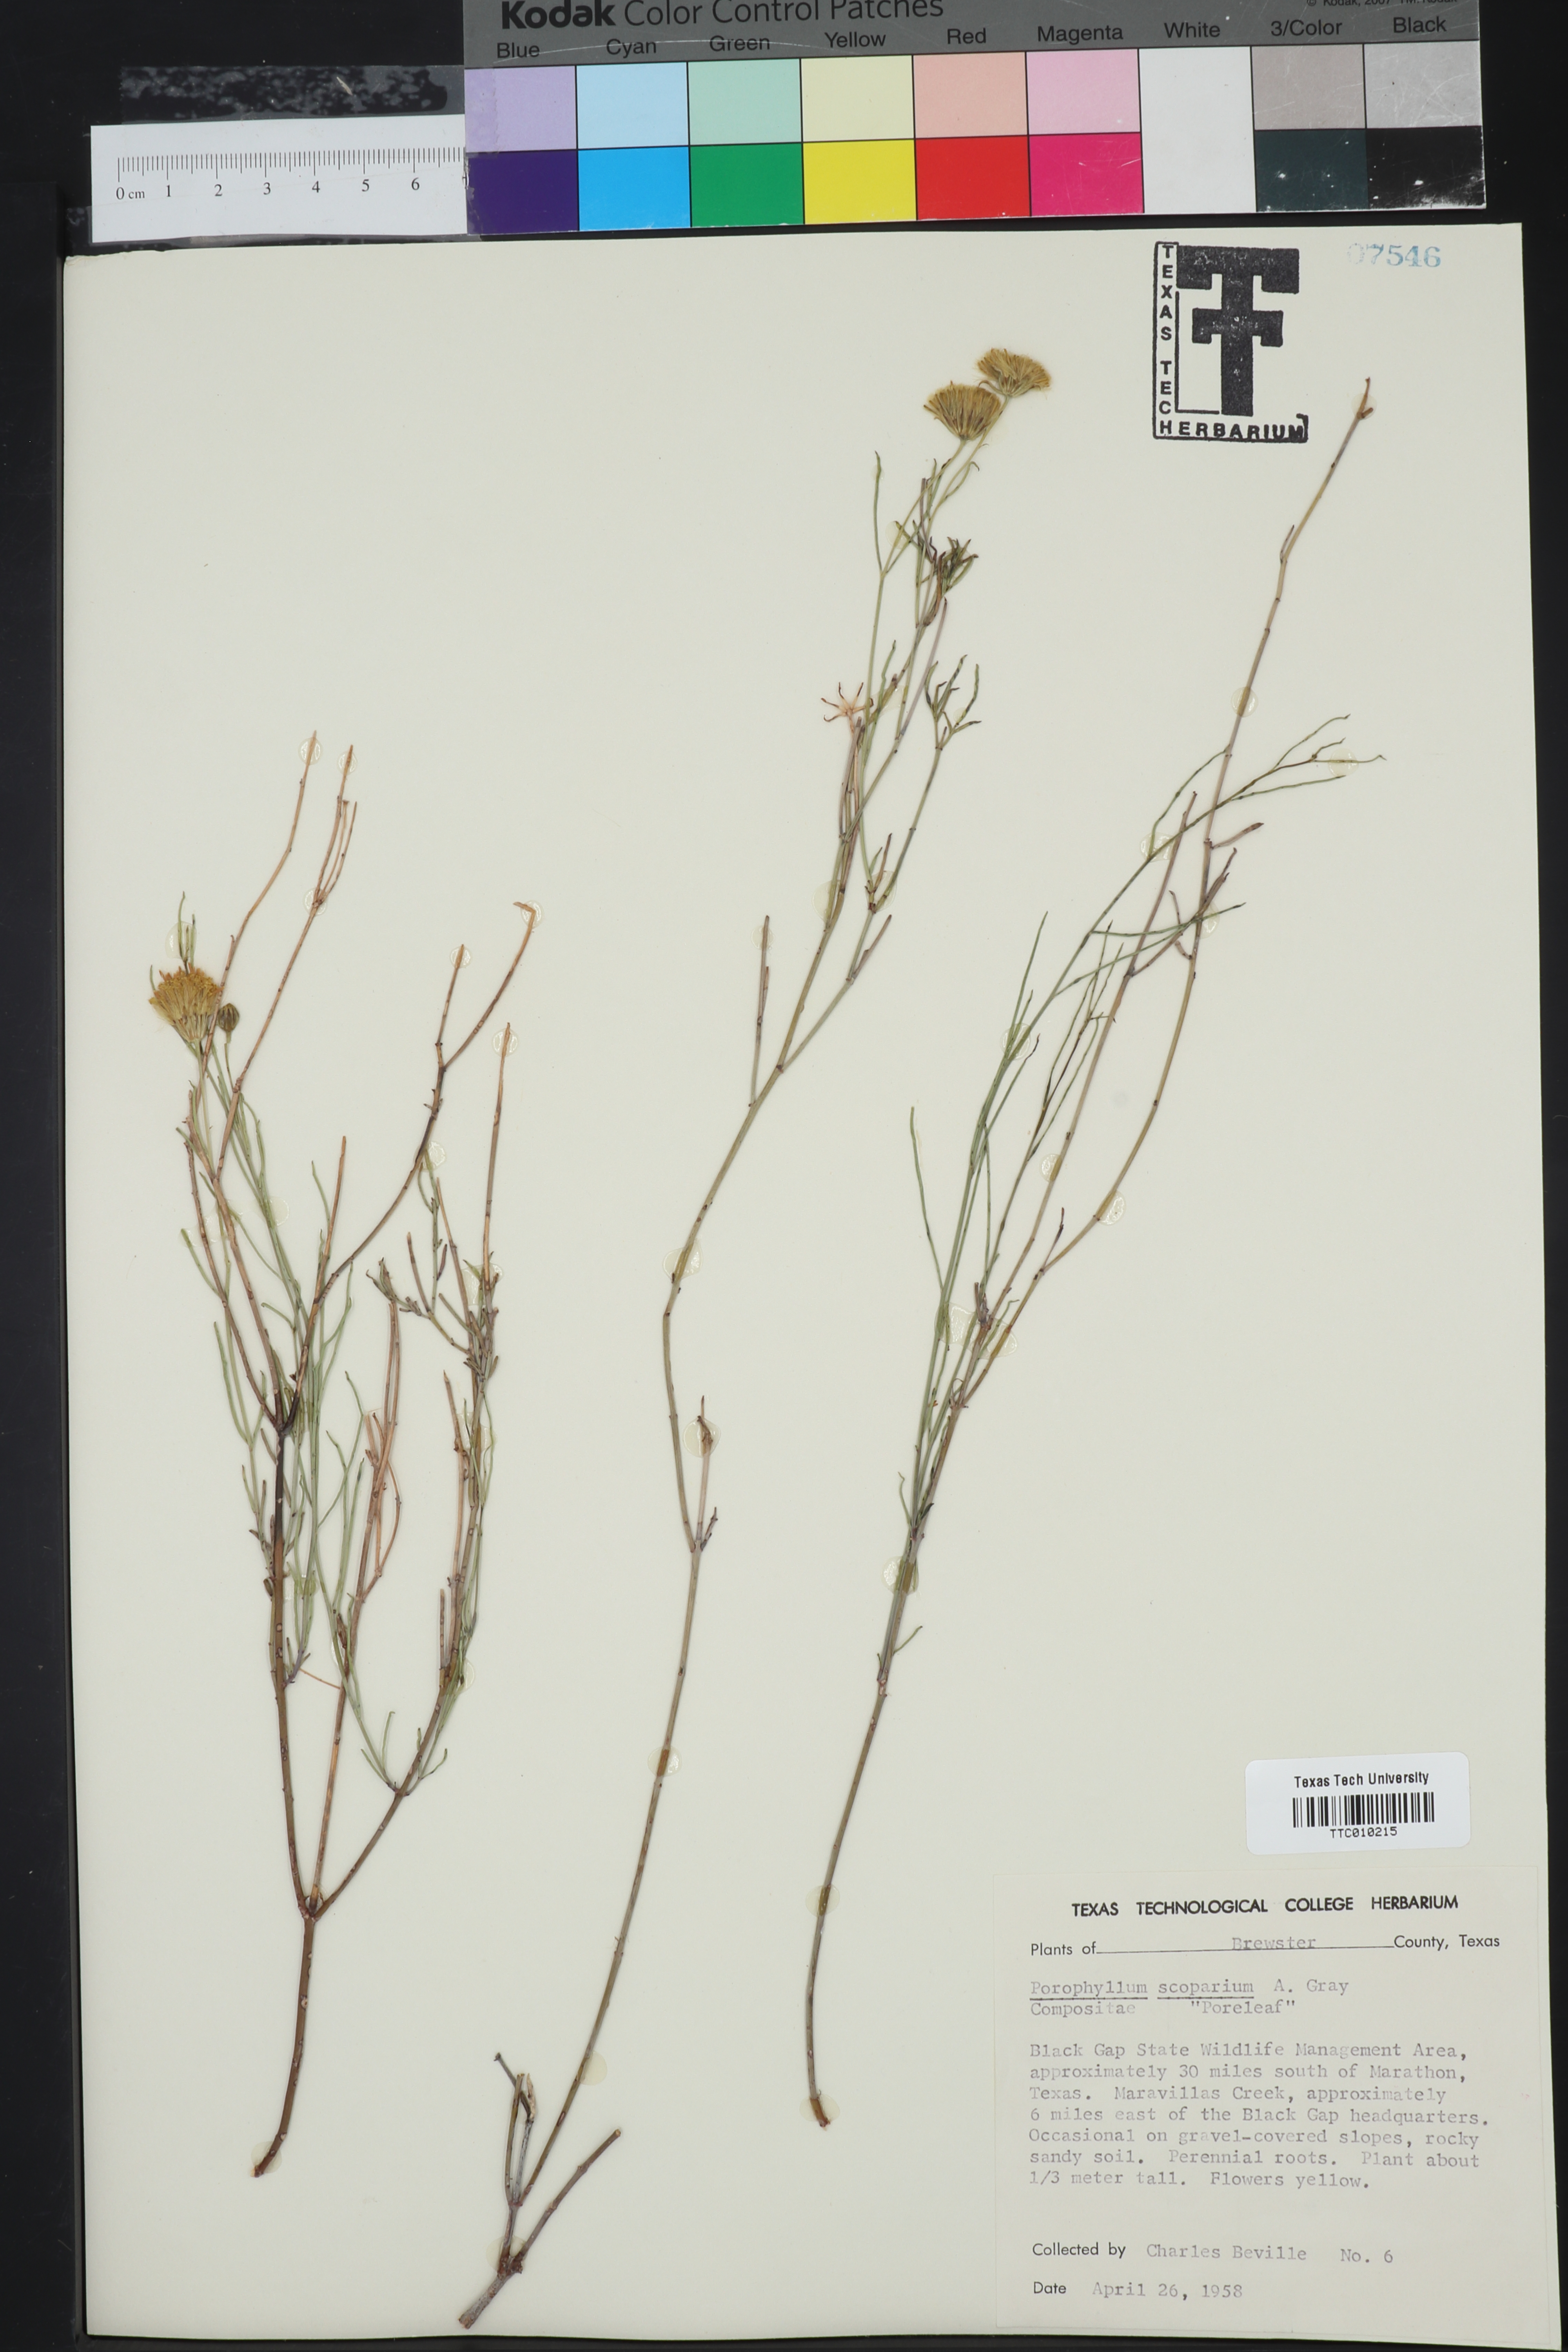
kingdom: Plantae
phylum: Tracheophyta
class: Magnoliopsida
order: Asterales
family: Asteraceae
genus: Porophyllum
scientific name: Porophyllum scoparium
